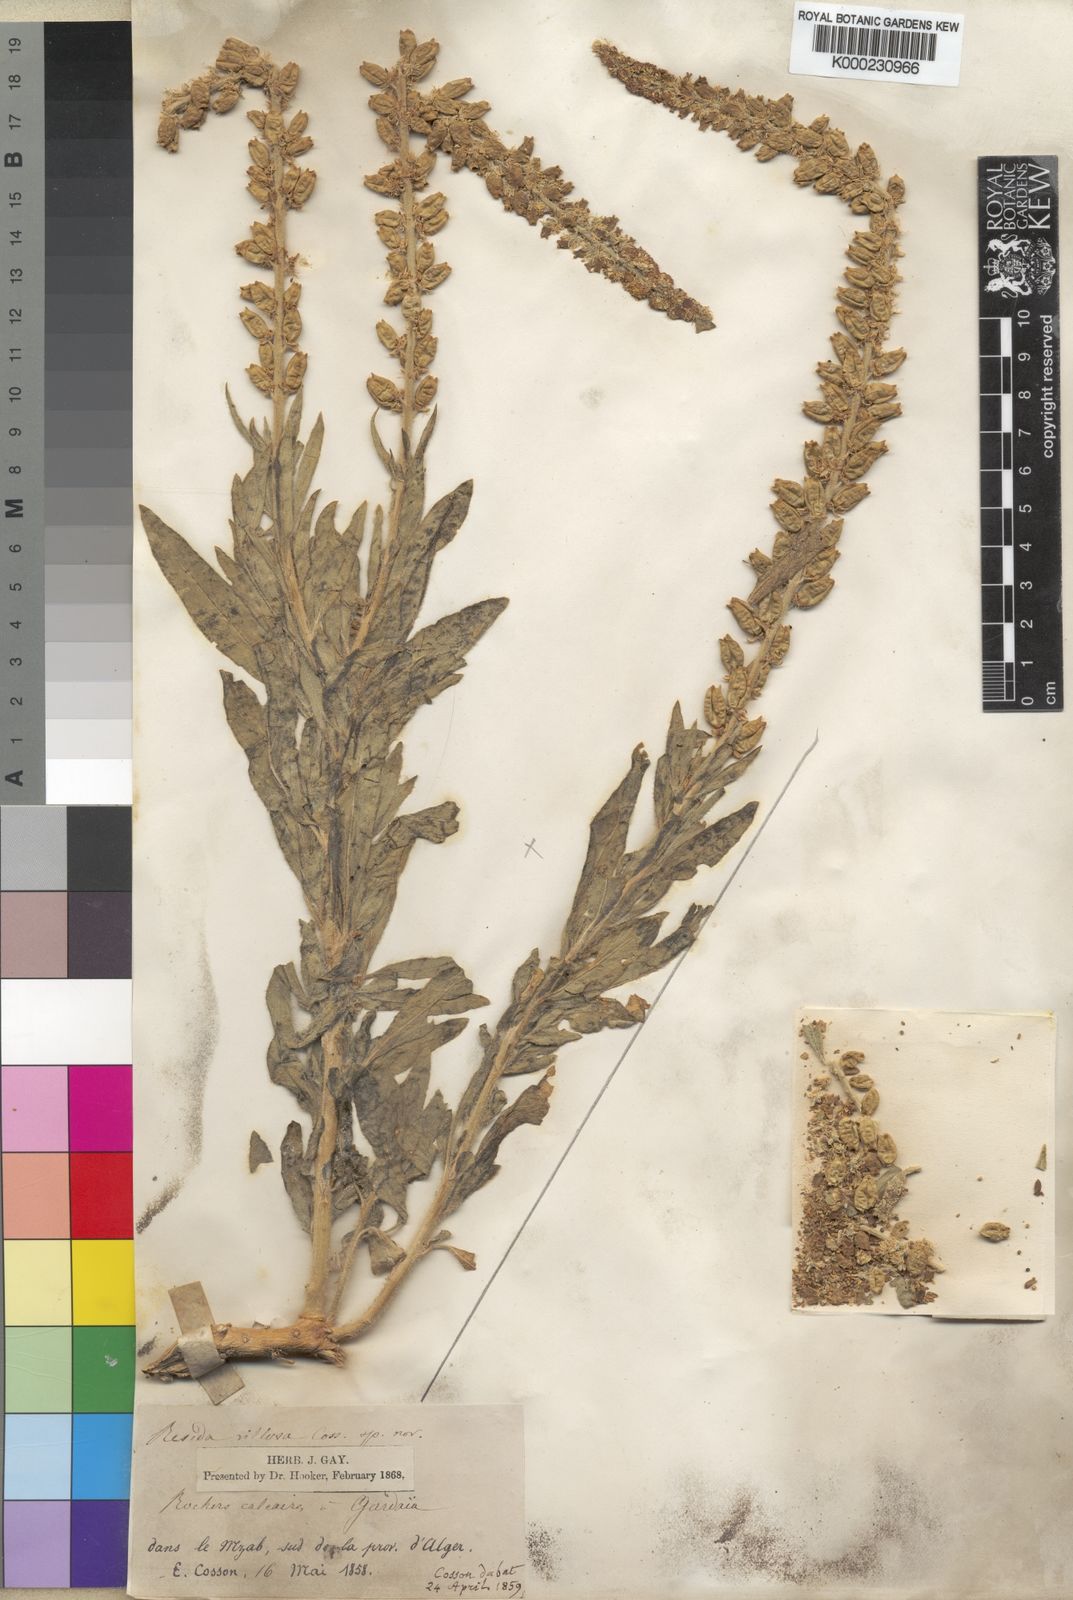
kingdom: Plantae
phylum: Tracheophyta
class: Magnoliopsida
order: Brassicales
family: Resedaceae
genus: Reseda
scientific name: Reseda villosa
